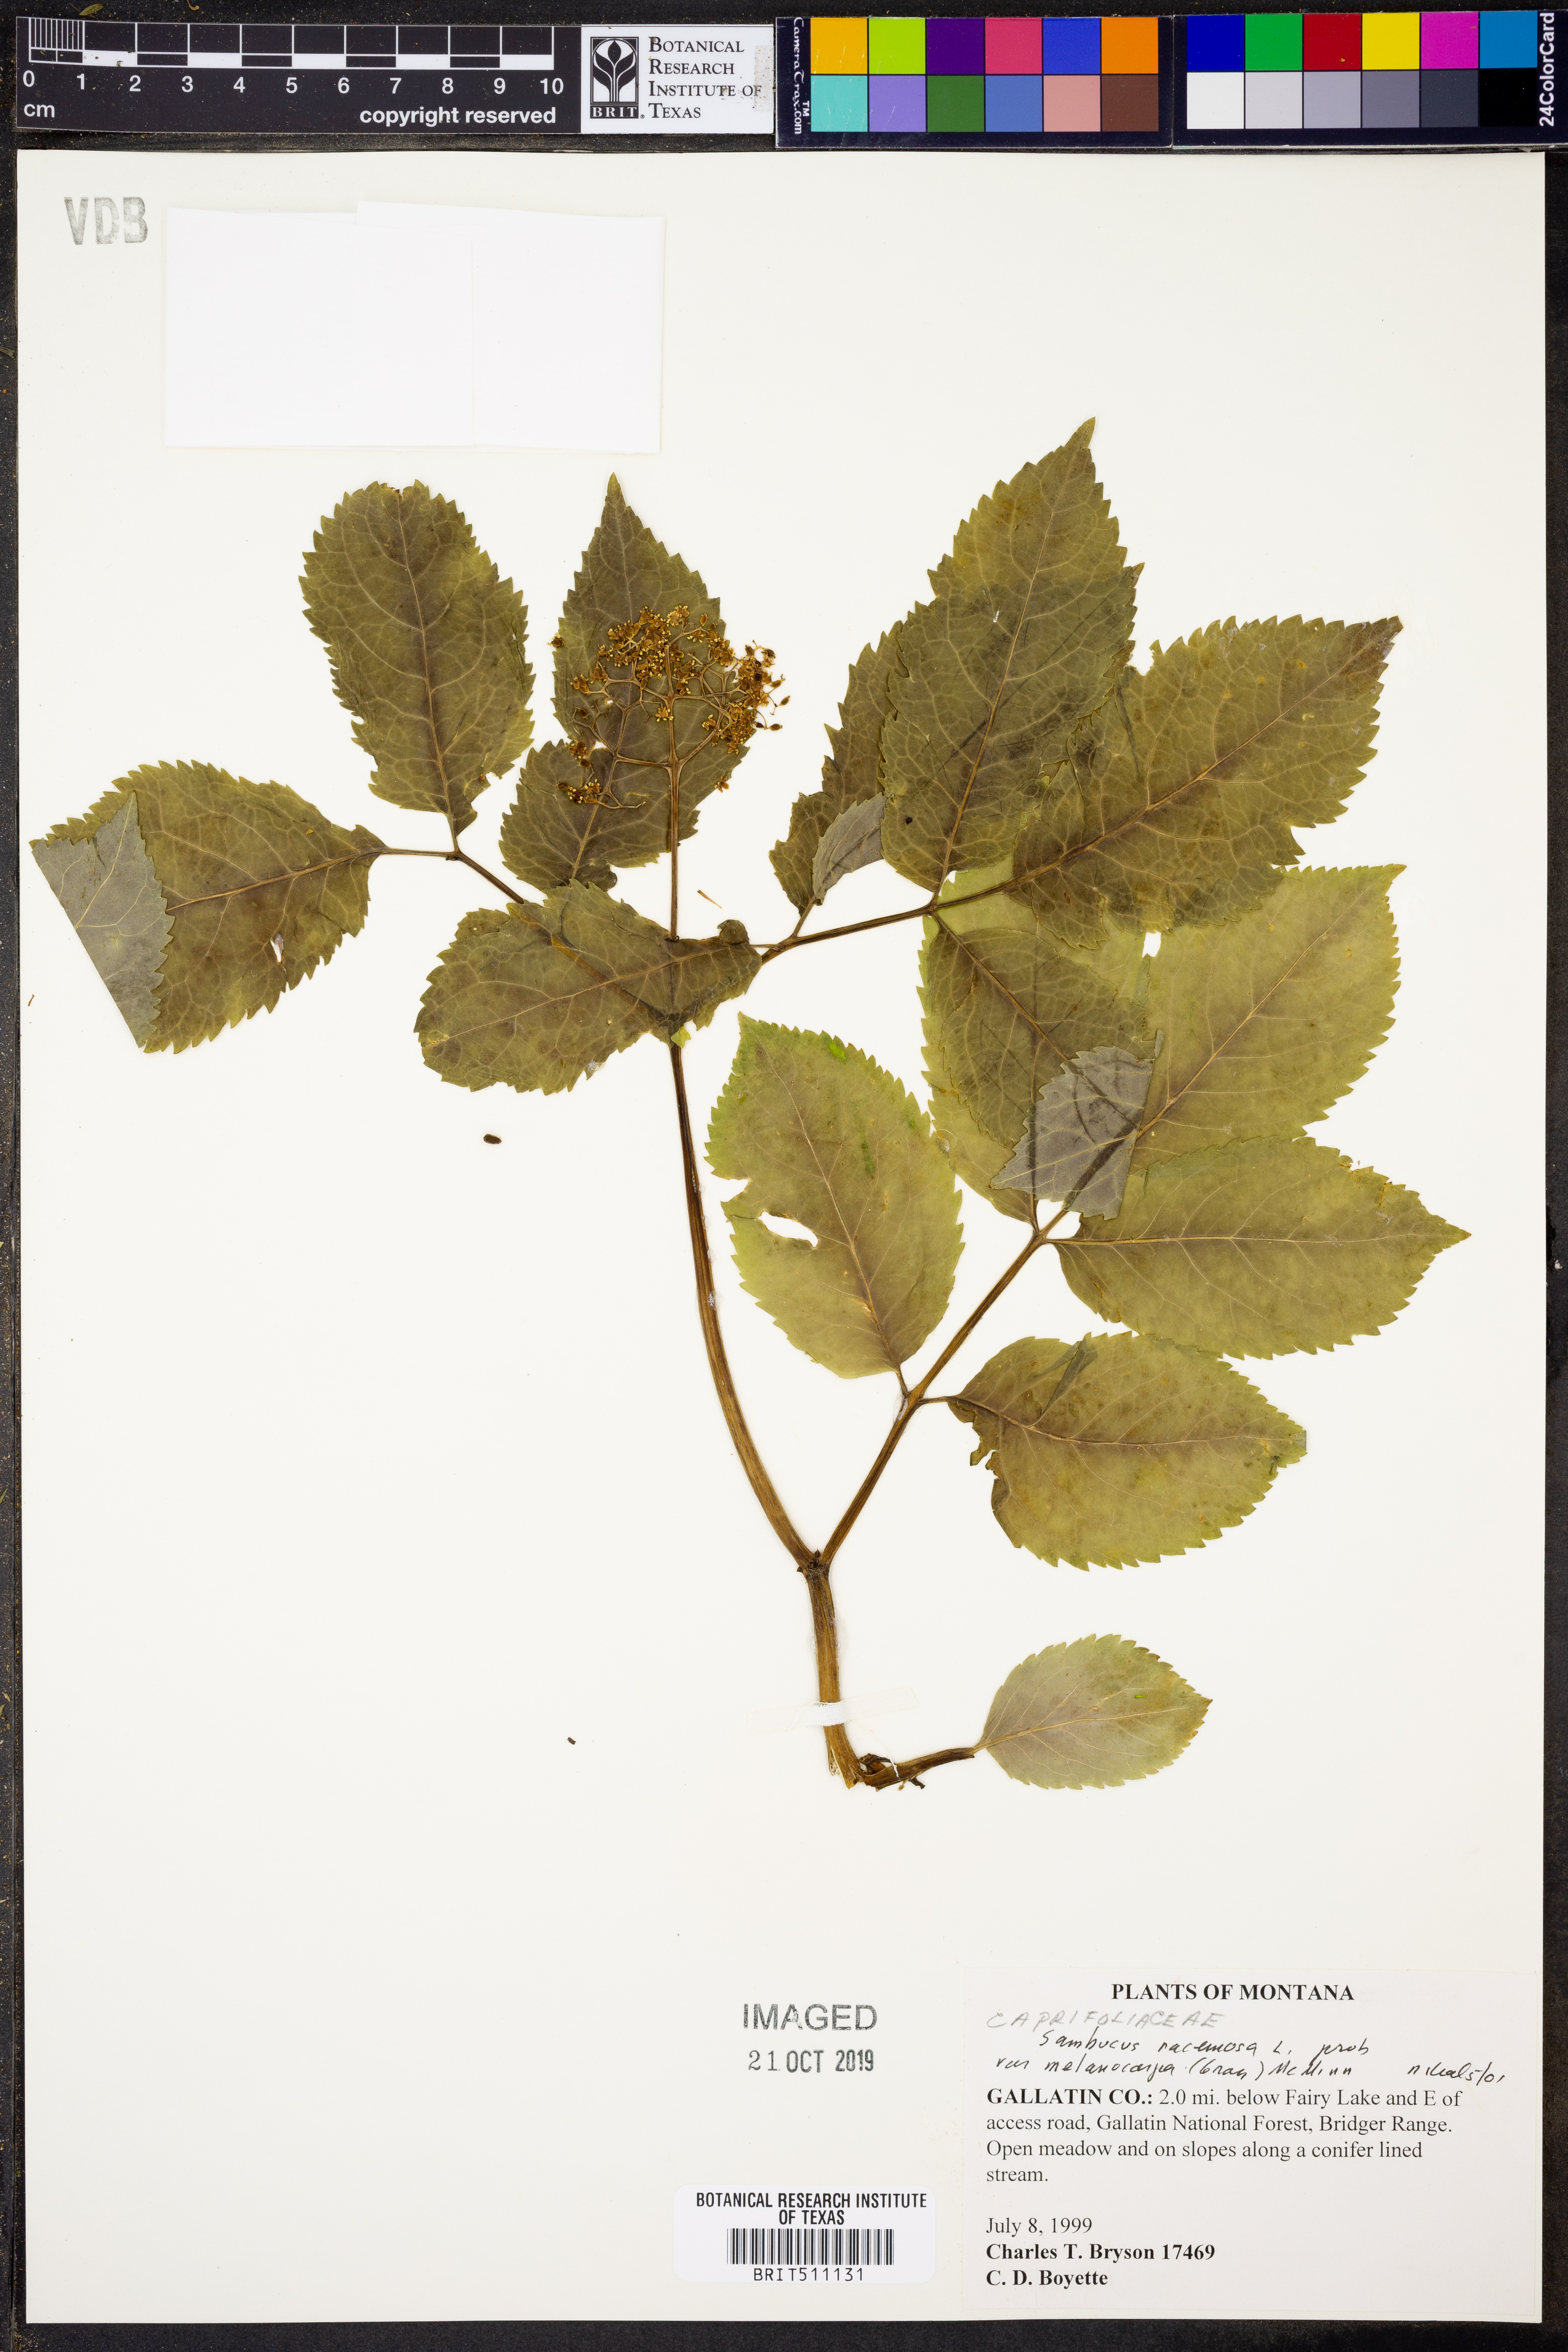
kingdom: Plantae
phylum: Tracheophyta
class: Magnoliopsida
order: Dipsacales
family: Viburnaceae
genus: Sambucus
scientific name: Sambucus racemosa
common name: Red-berried elder
